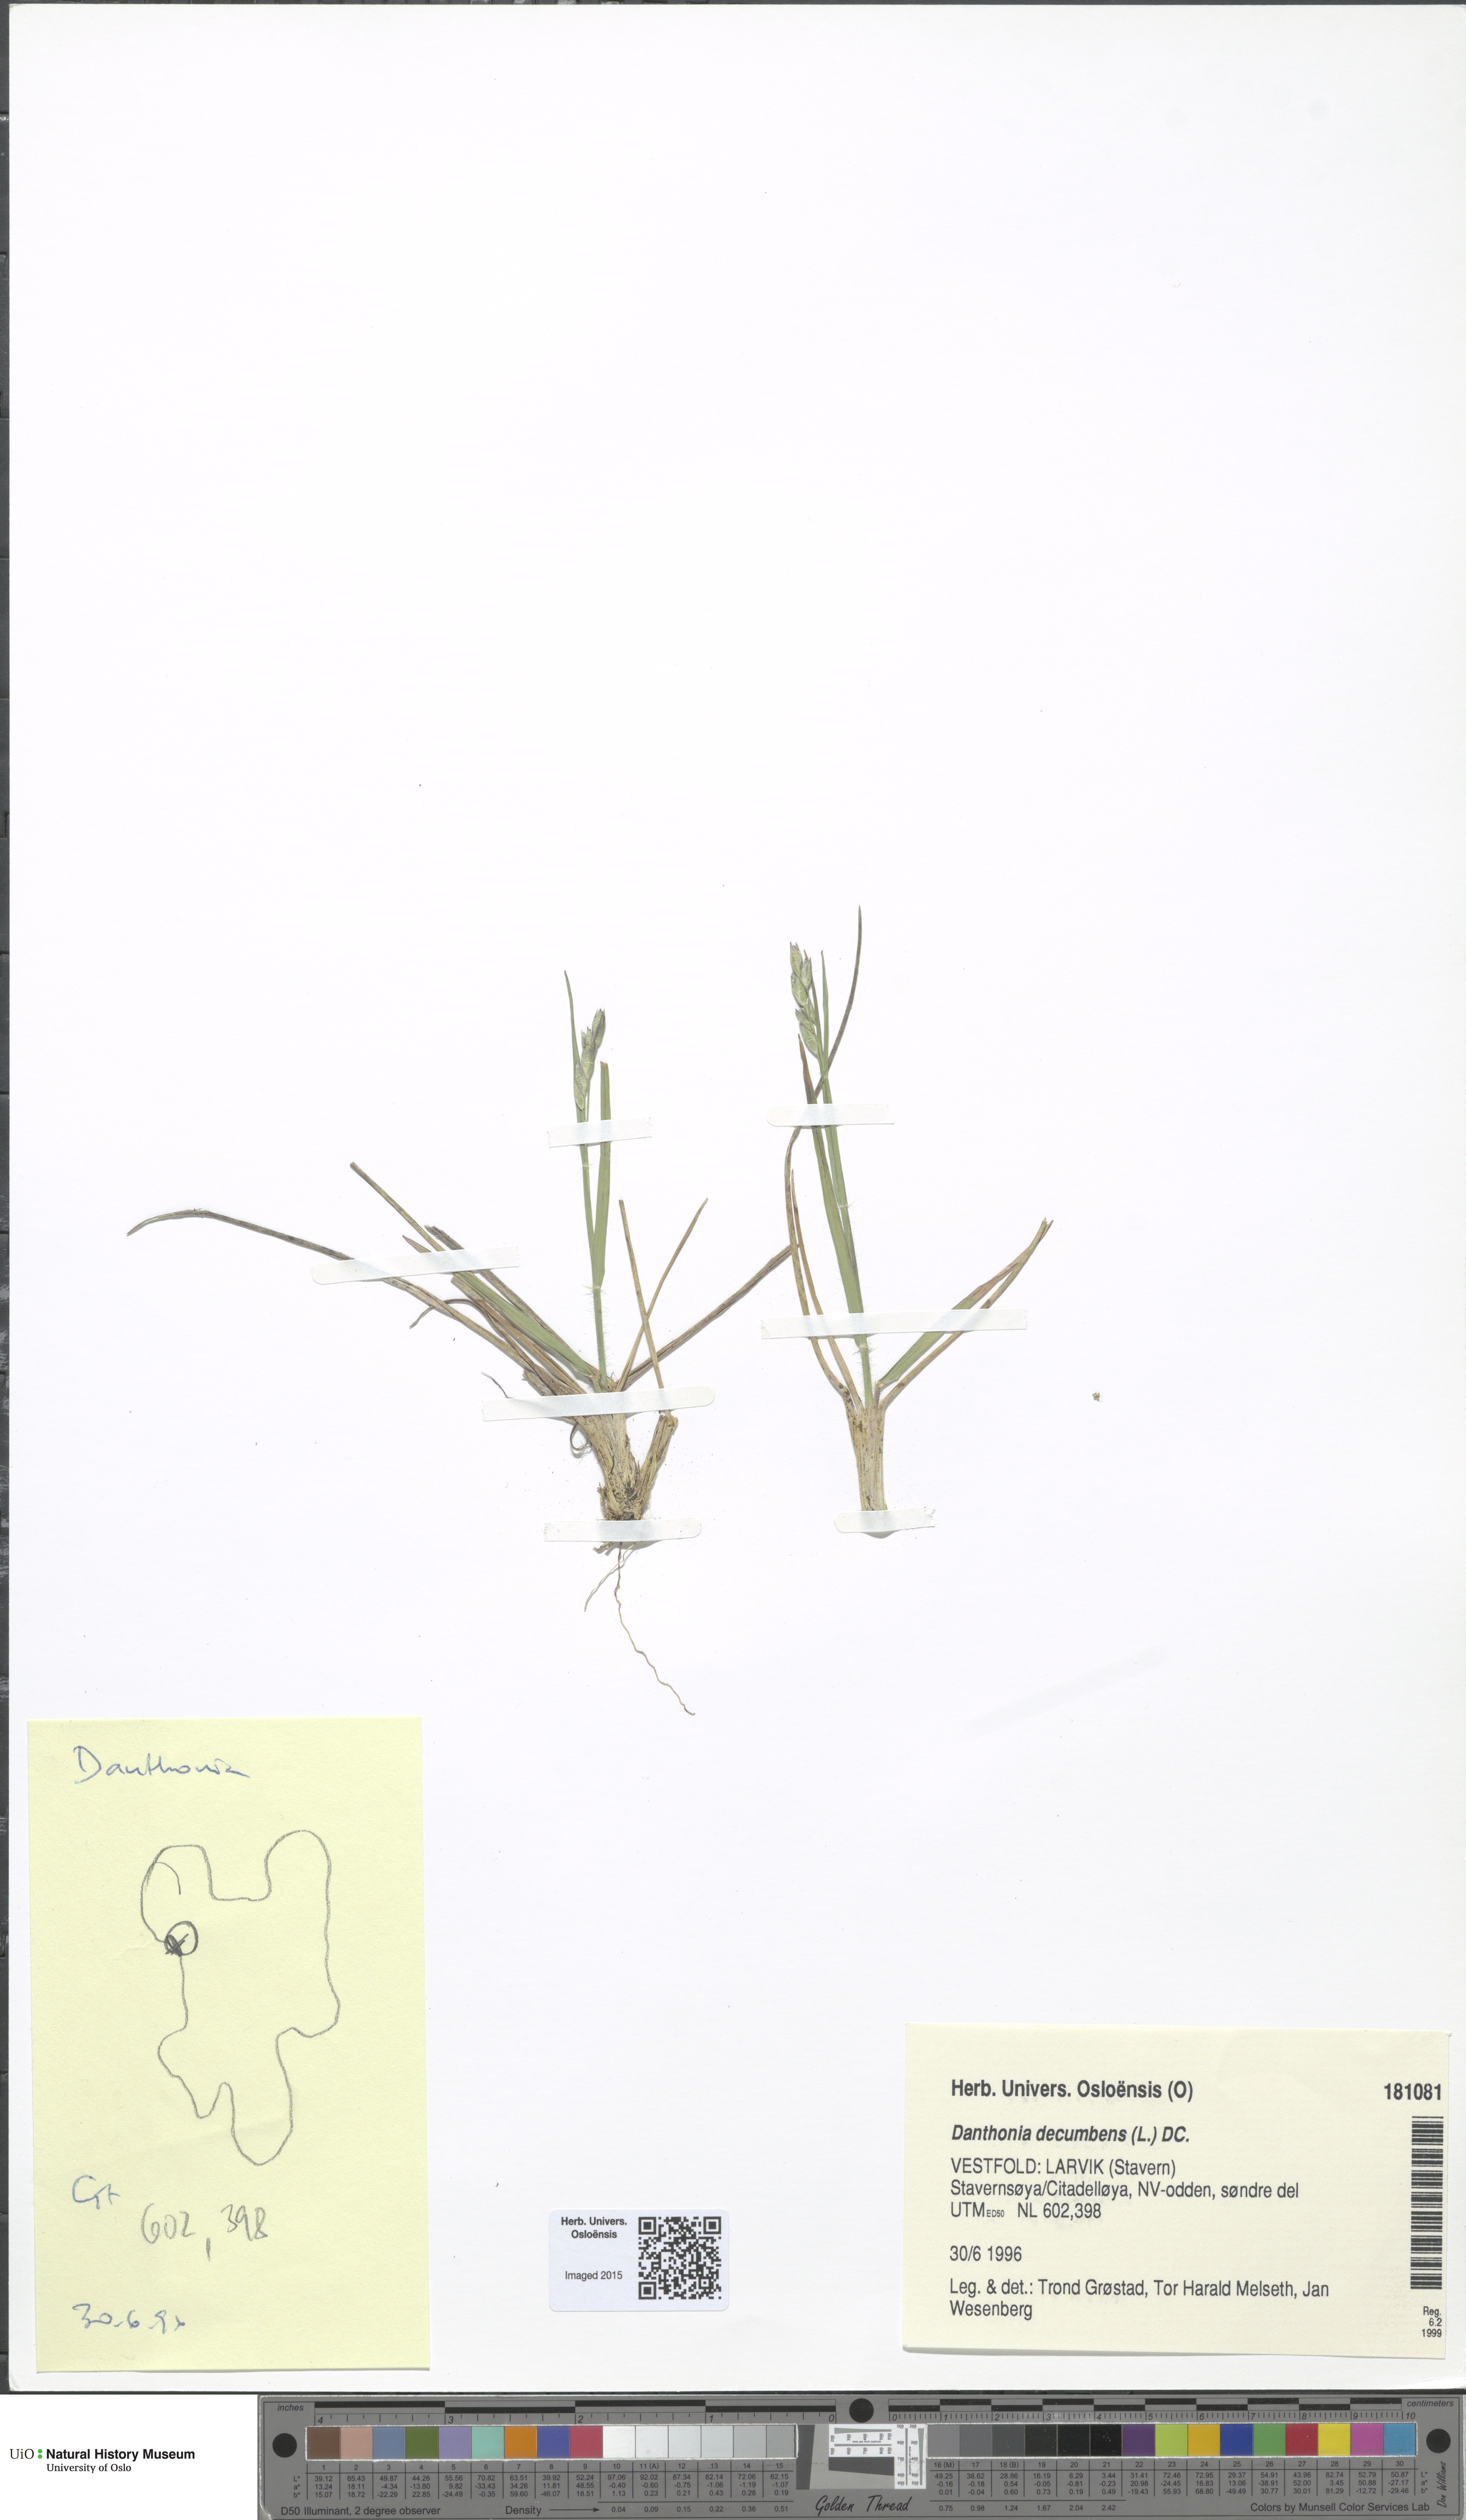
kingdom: Plantae
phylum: Tracheophyta
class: Liliopsida
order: Poales
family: Poaceae
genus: Danthonia
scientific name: Danthonia decumbens
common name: Common heathgrass
